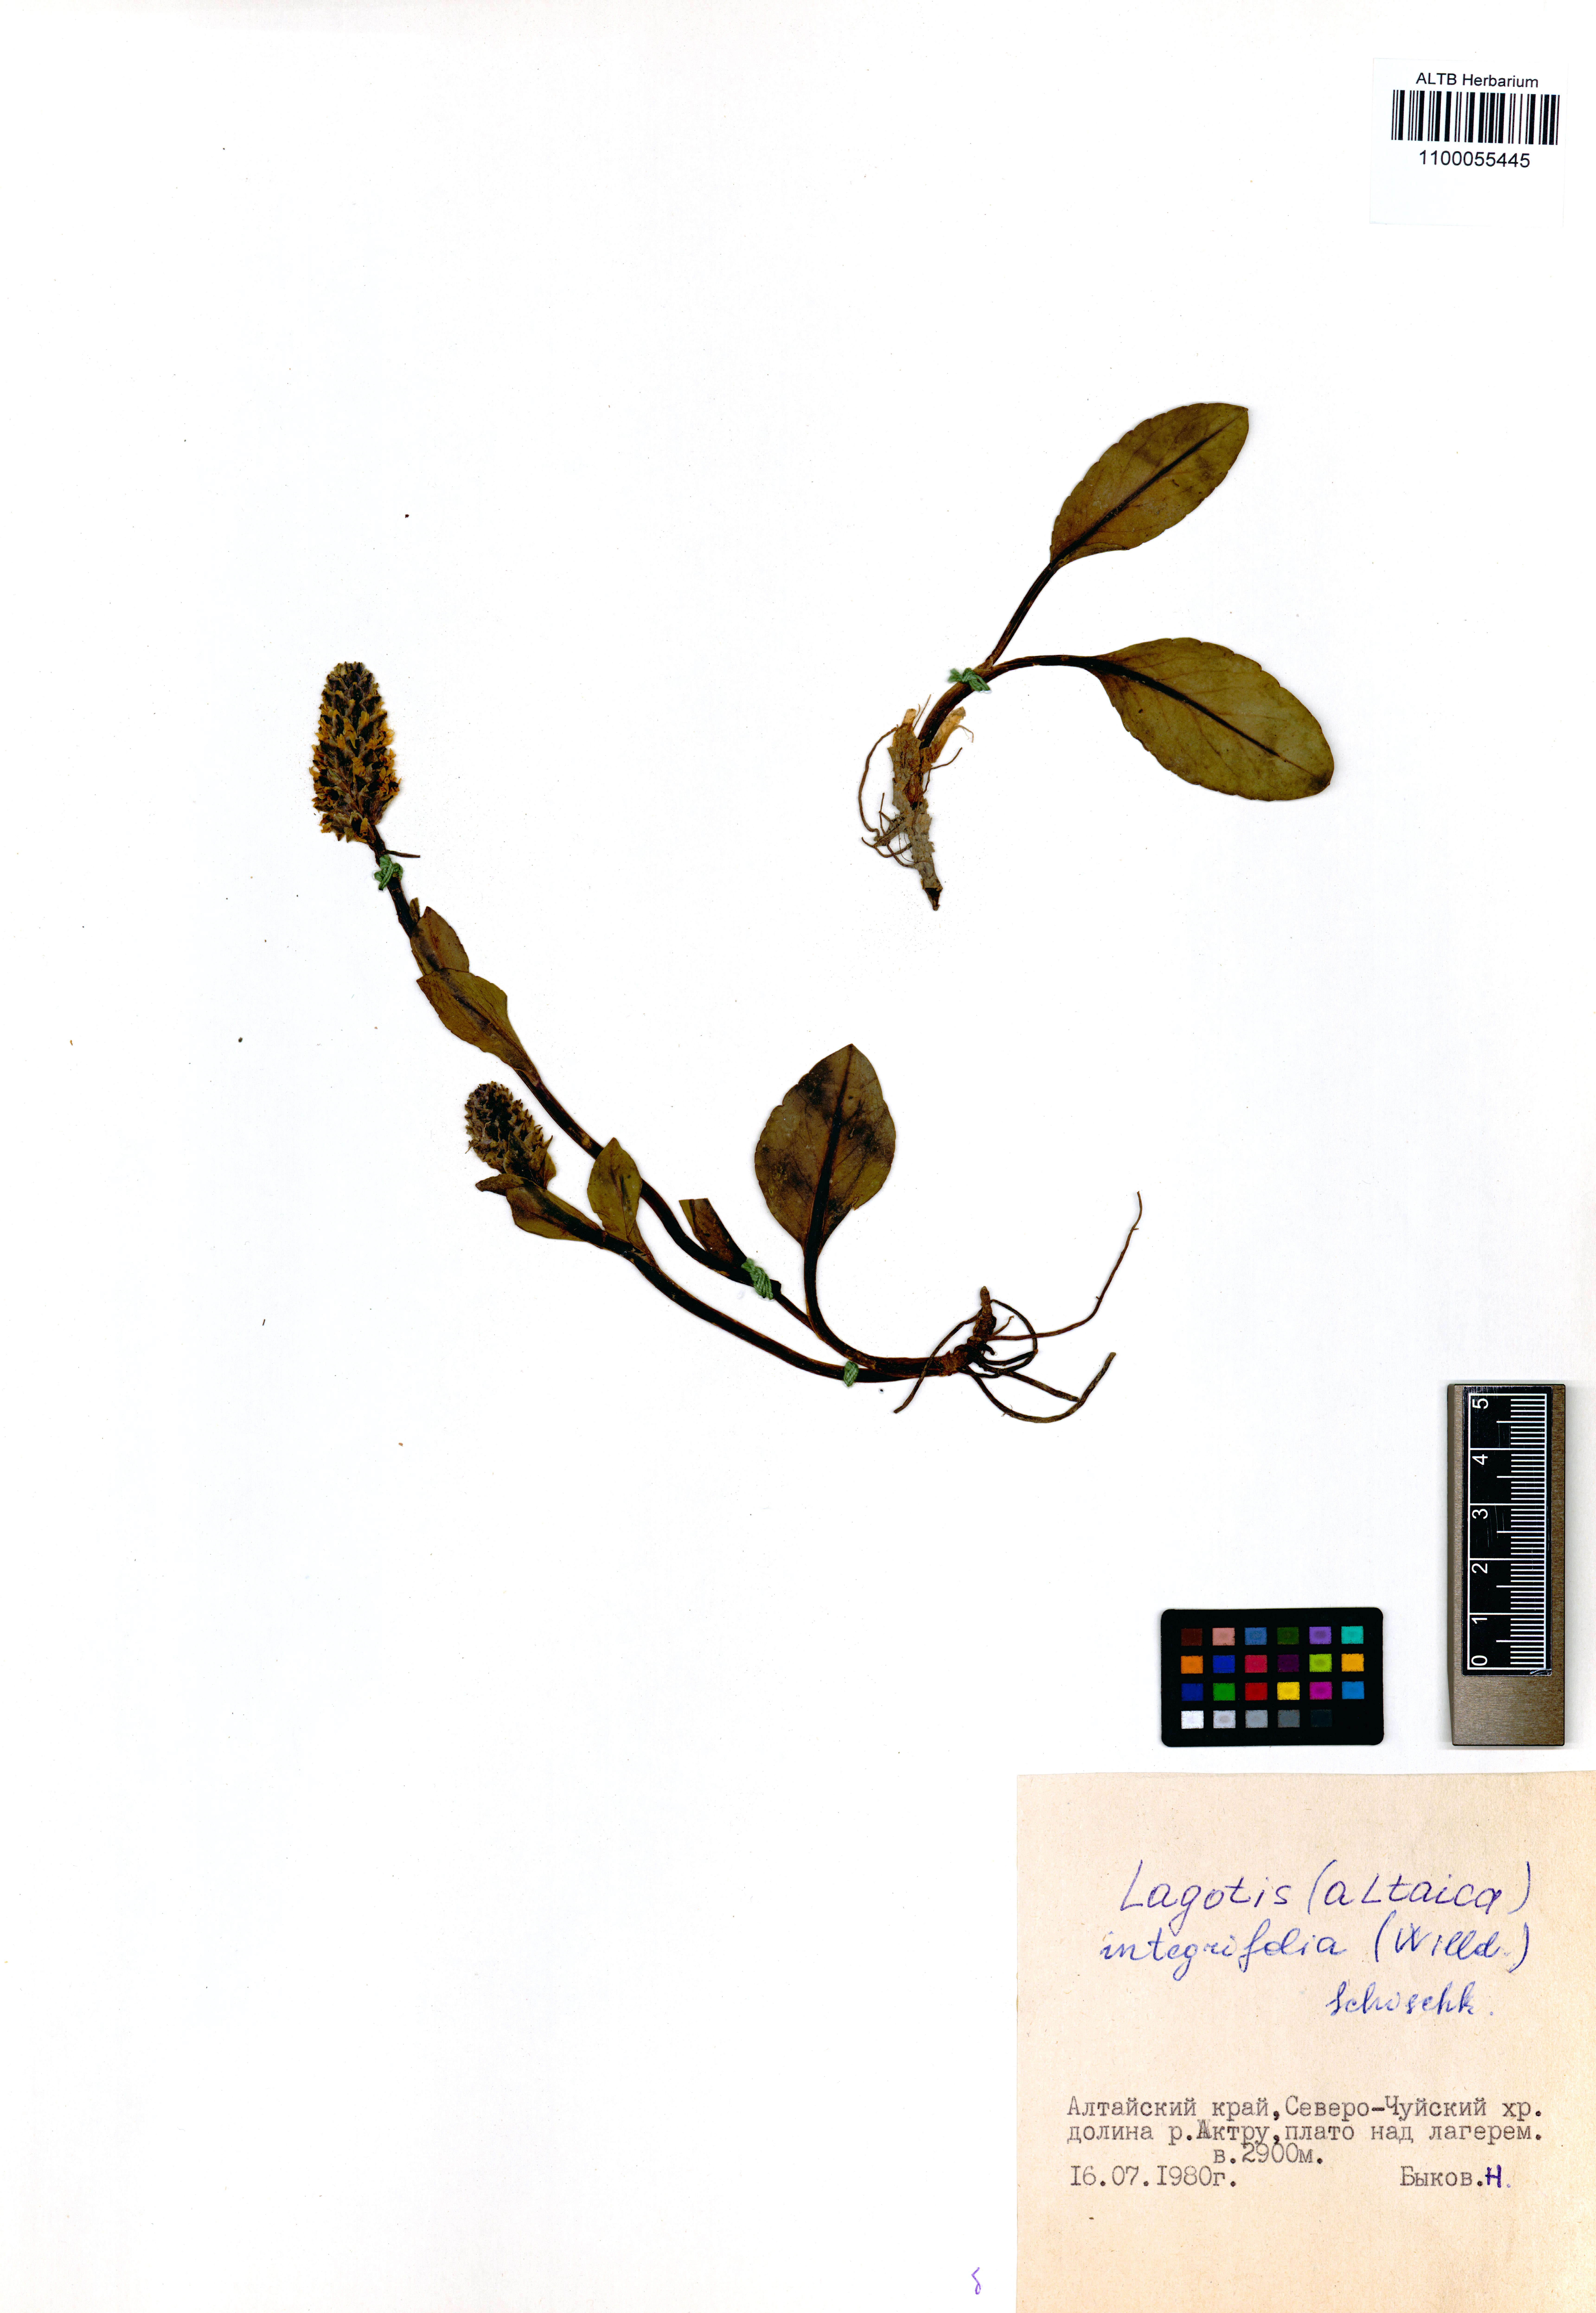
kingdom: Plantae
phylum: Tracheophyta
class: Magnoliopsida
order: Lamiales
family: Plantaginaceae
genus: Lagotis
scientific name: Lagotis integrifolia
